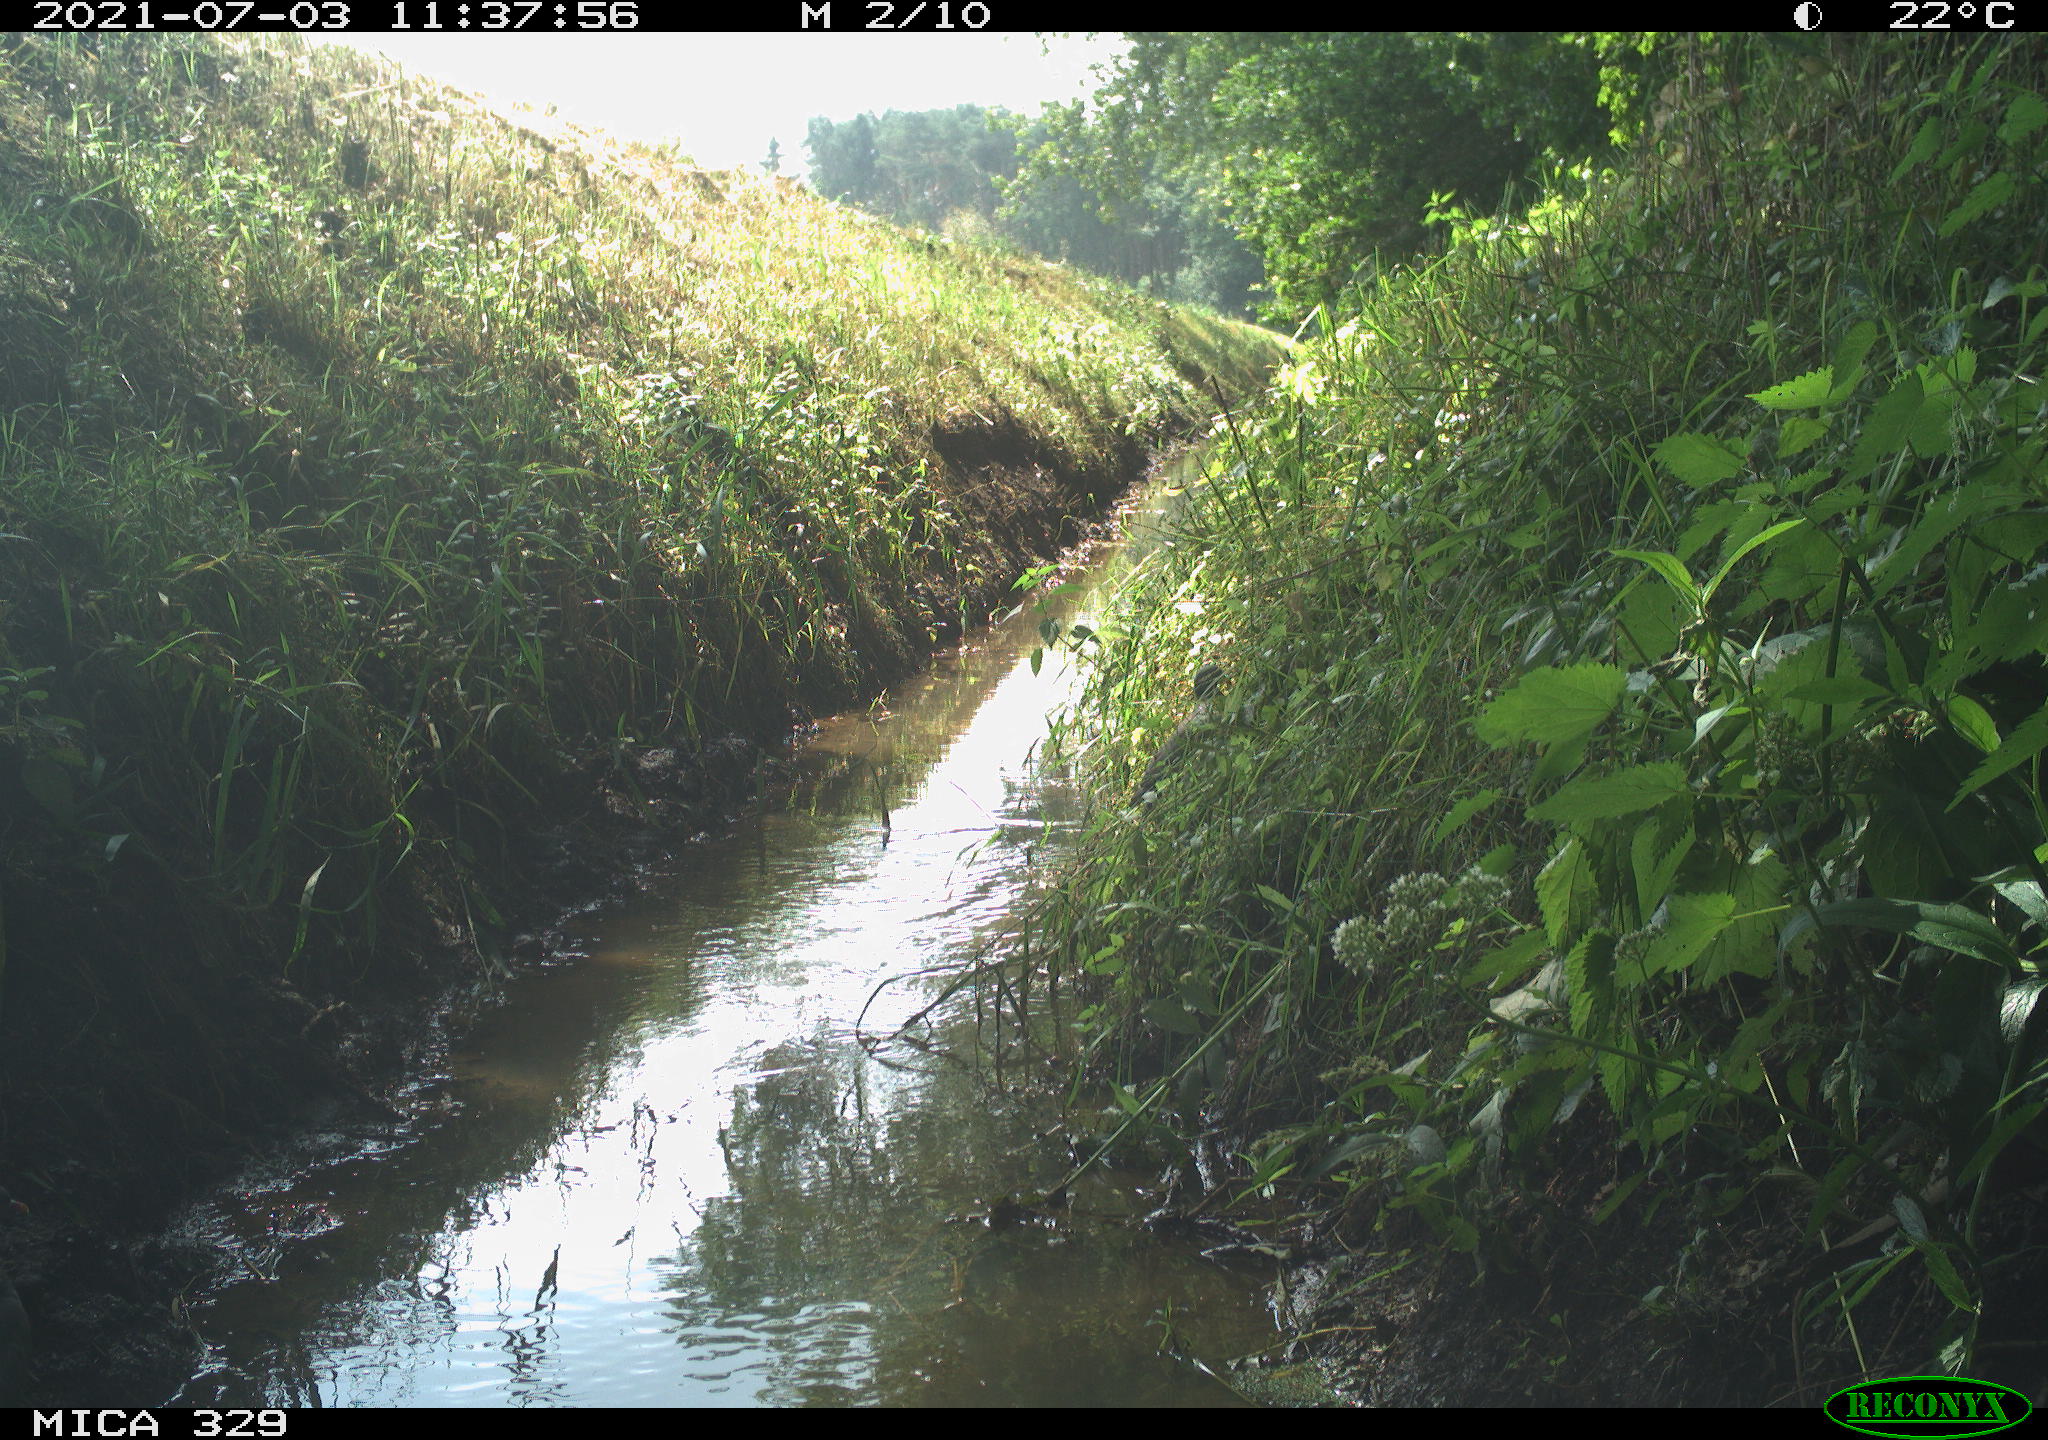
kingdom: Animalia
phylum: Chordata
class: Aves
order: Columbiformes
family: Columbidae
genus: Columba
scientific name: Columba palumbus
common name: Common wood pigeon
